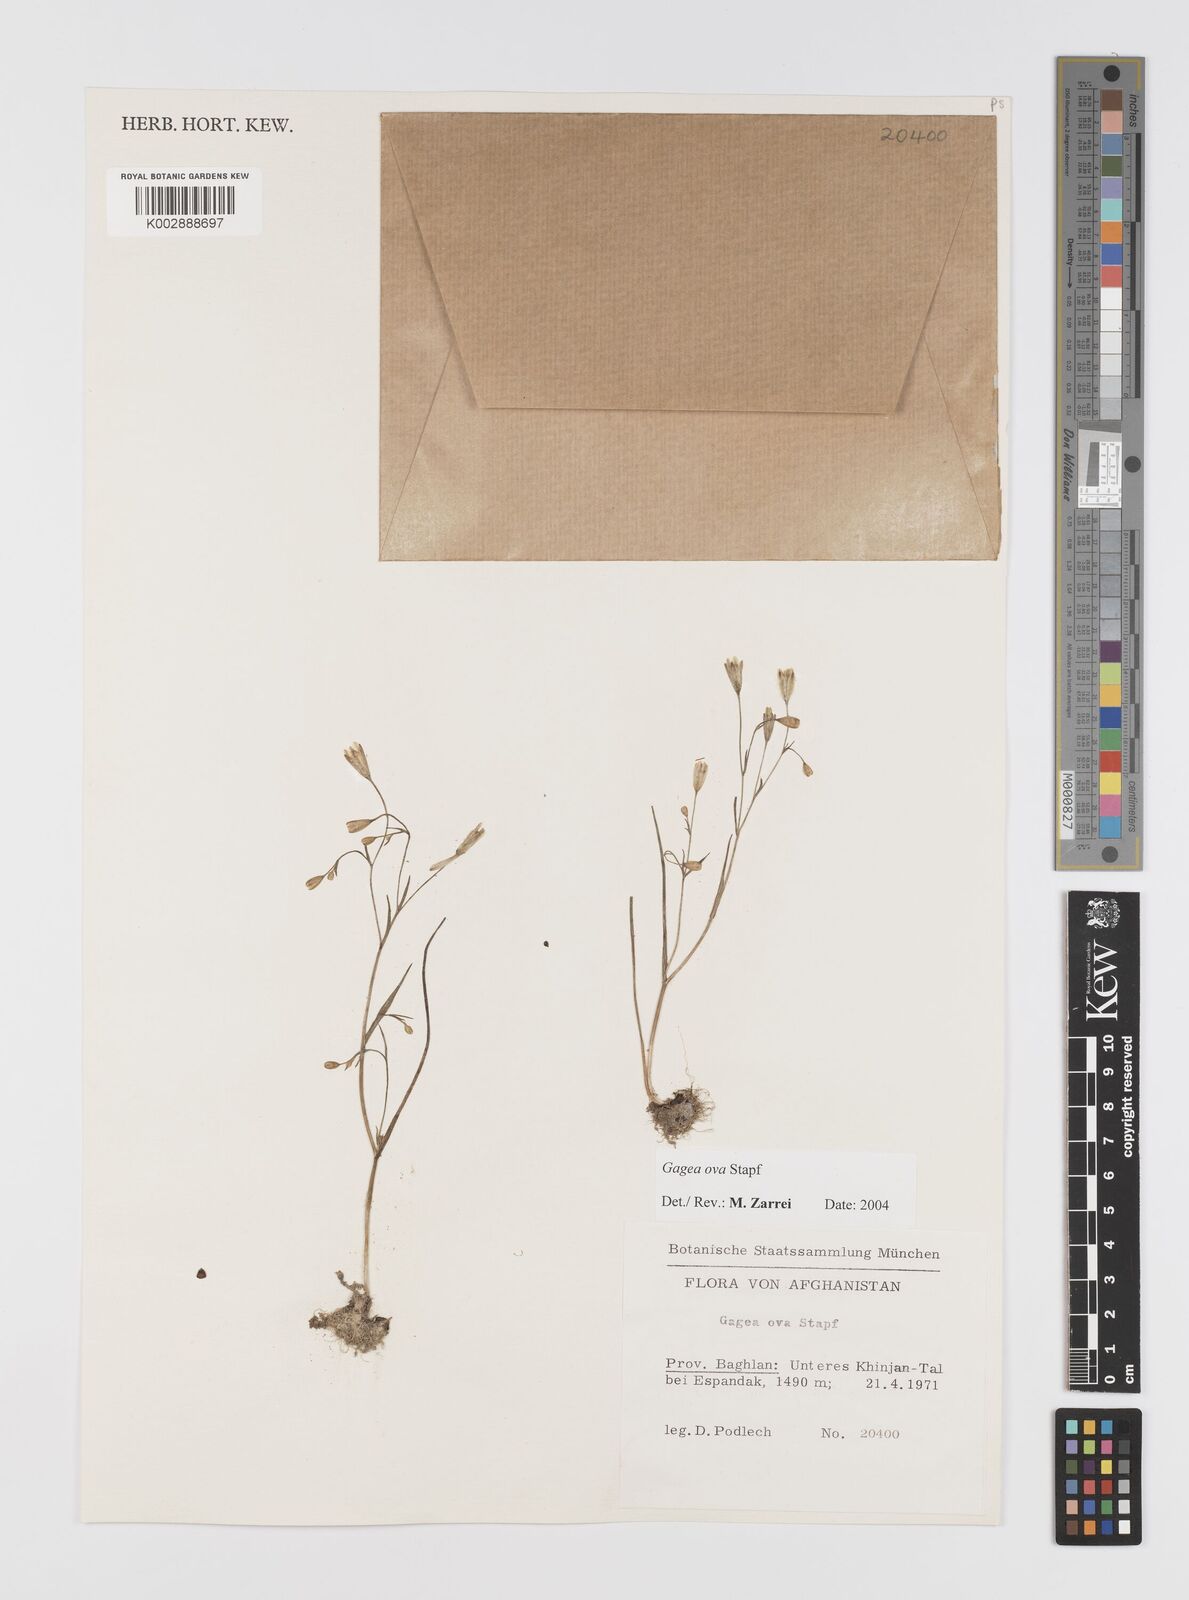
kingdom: Plantae
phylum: Tracheophyta
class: Liliopsida
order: Liliales
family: Liliaceae
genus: Gagea
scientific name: Gagea kunawurensis
